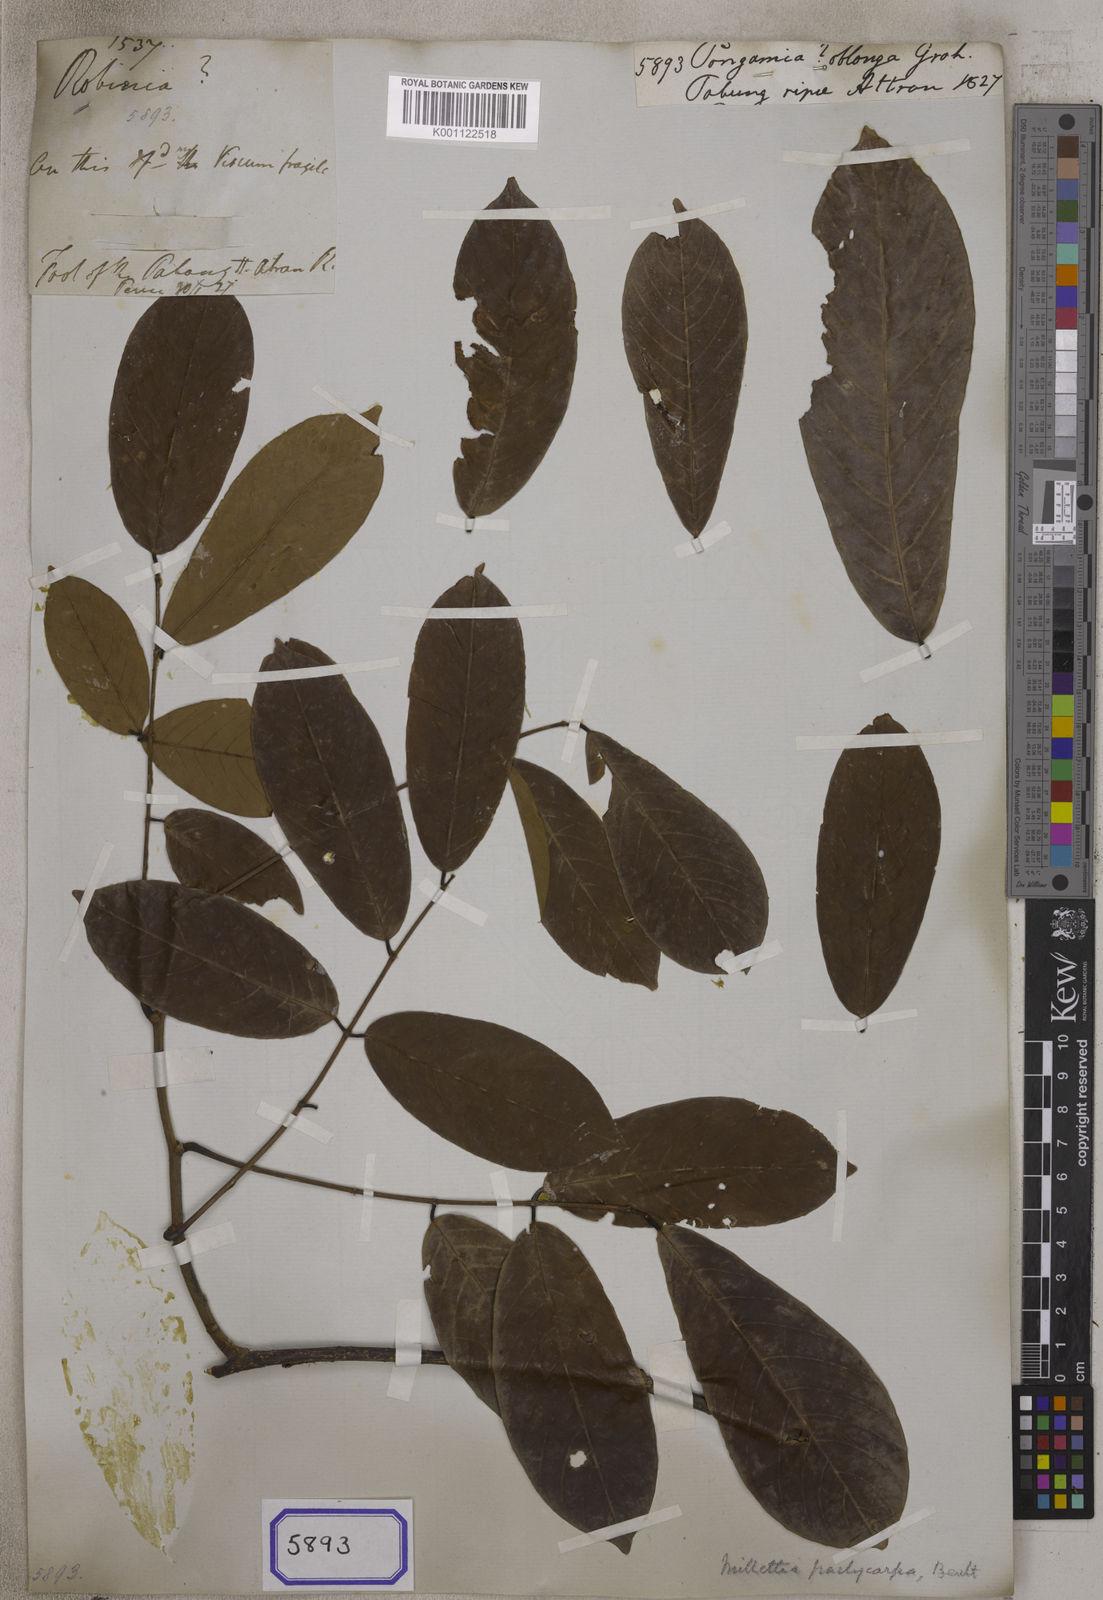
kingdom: Plantae
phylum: Tracheophyta
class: Magnoliopsida
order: Fabales
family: Fabaceae
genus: Callerya
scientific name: Callerya cinerea
